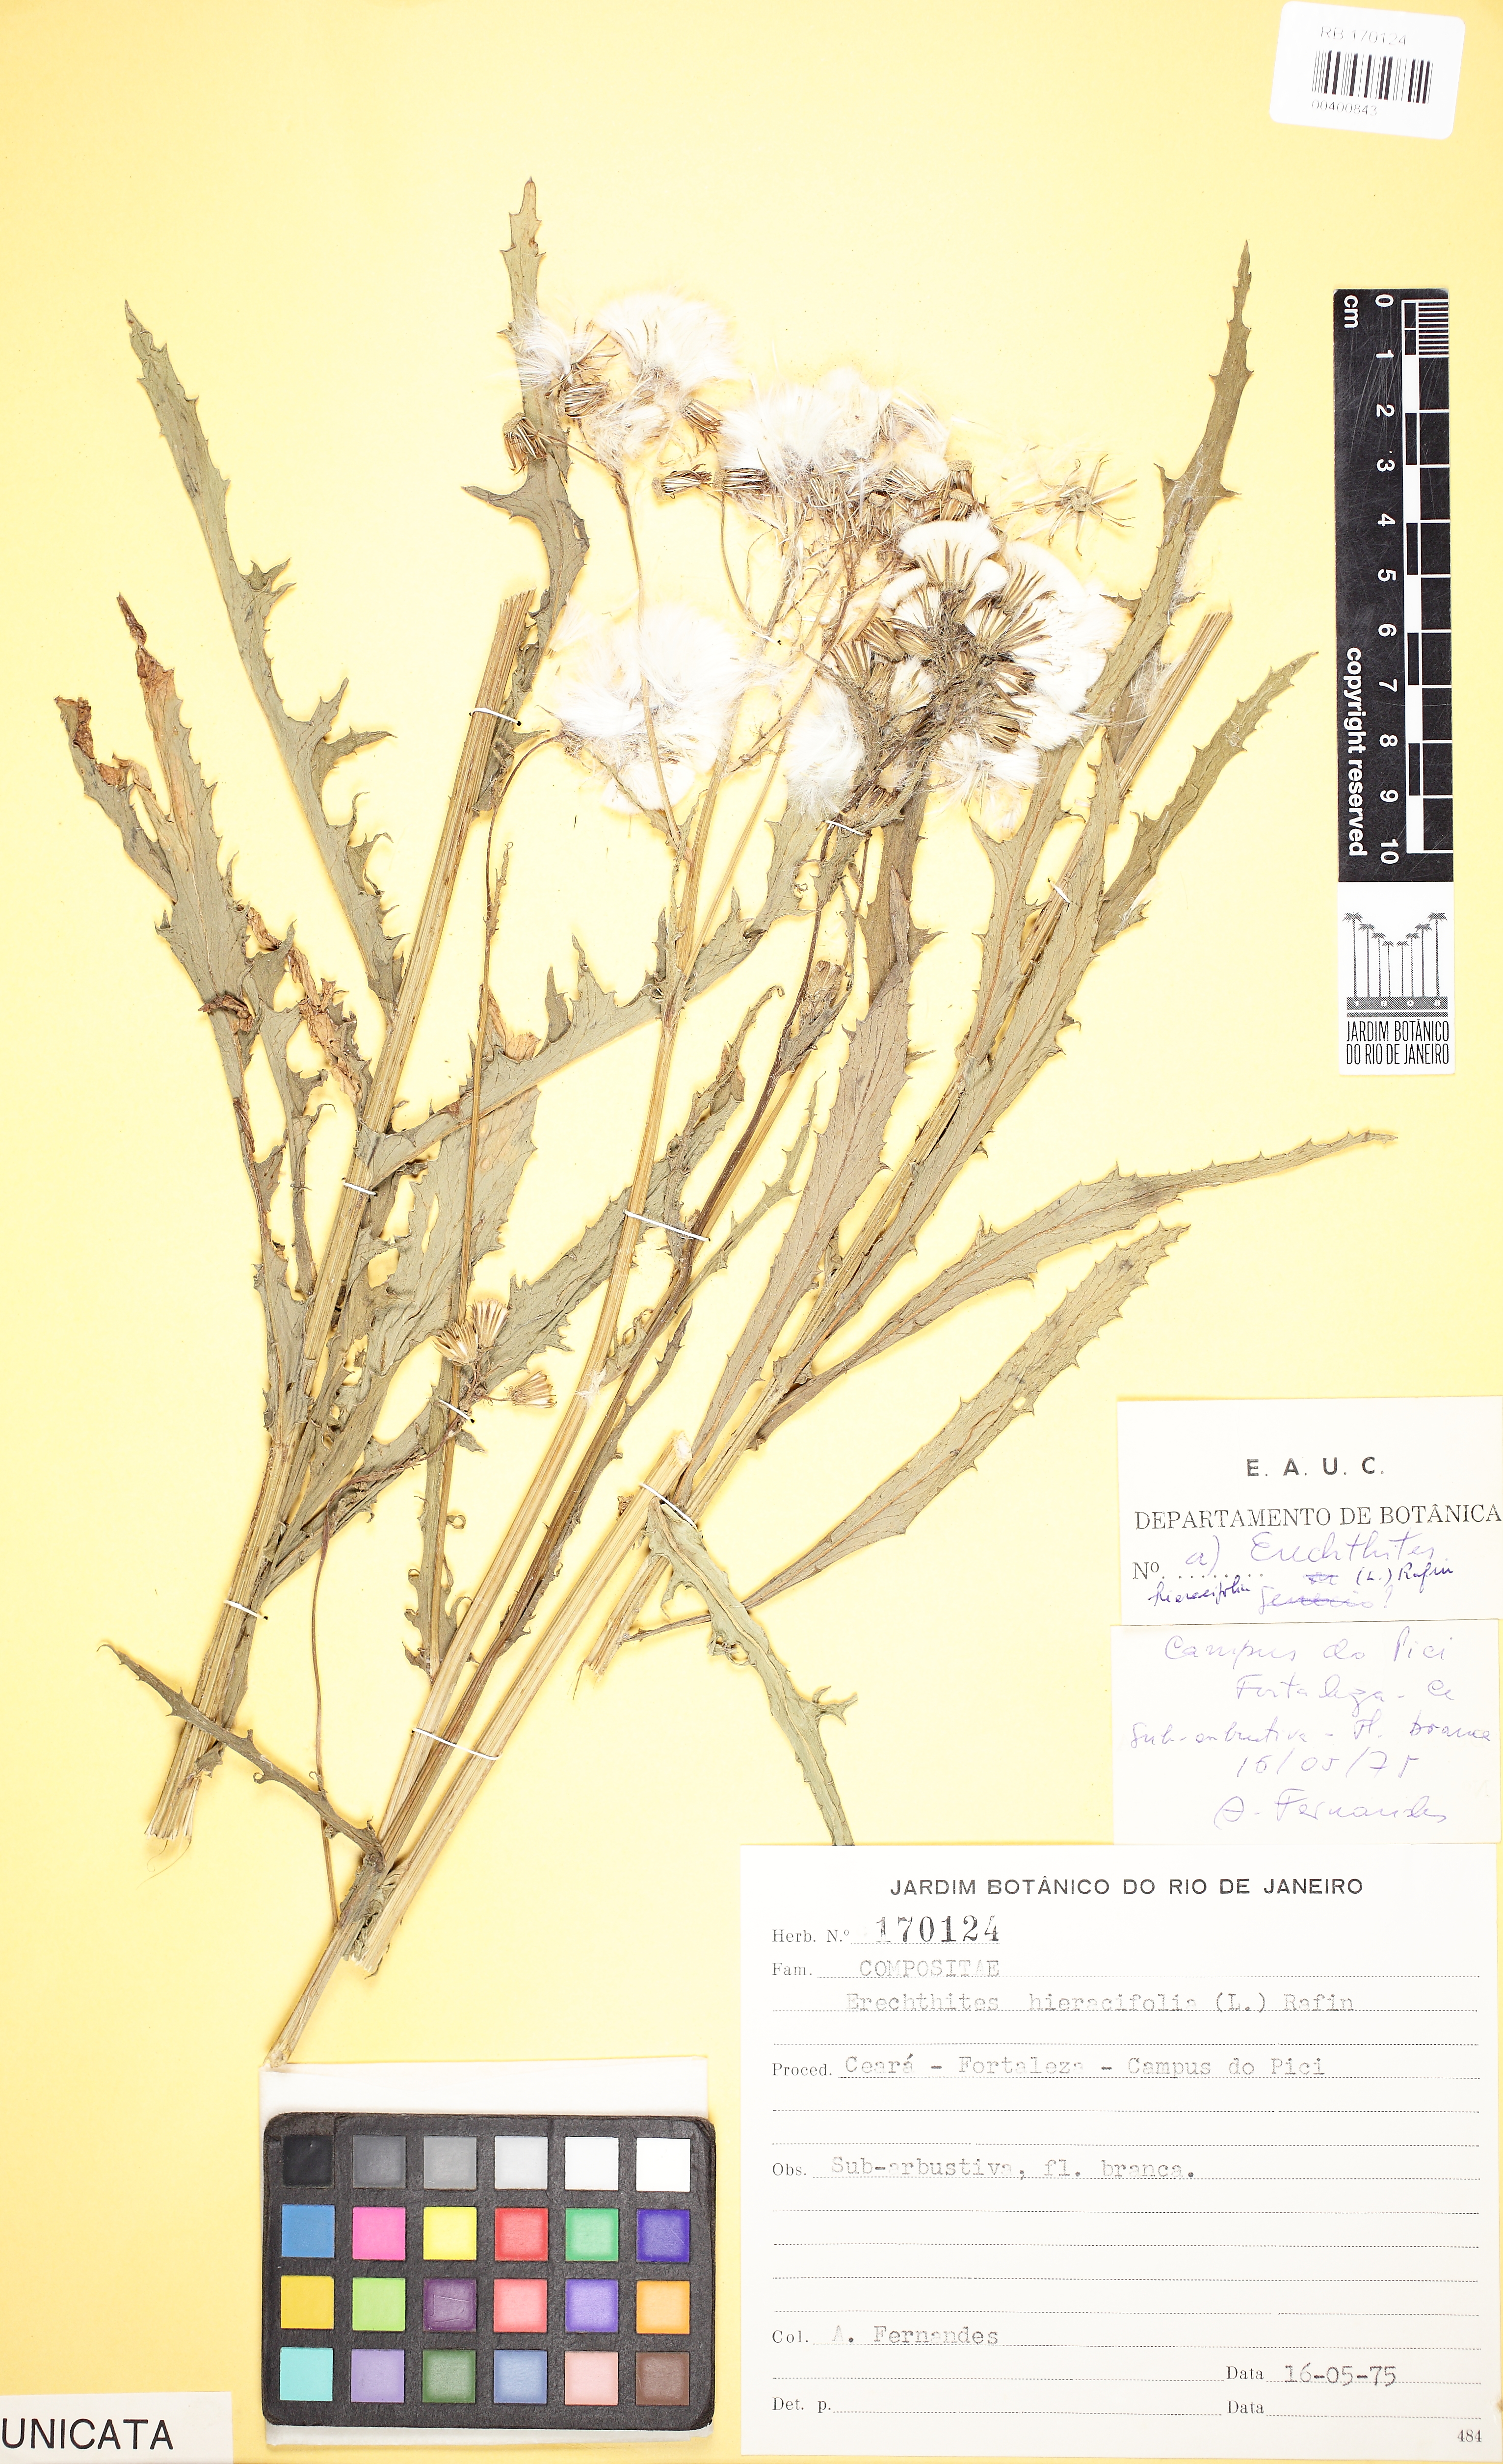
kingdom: Plantae
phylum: Tracheophyta
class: Magnoliopsida
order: Asterales
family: Asteraceae
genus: Erechtites
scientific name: Erechtites hieraciifolius
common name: American burnweed
